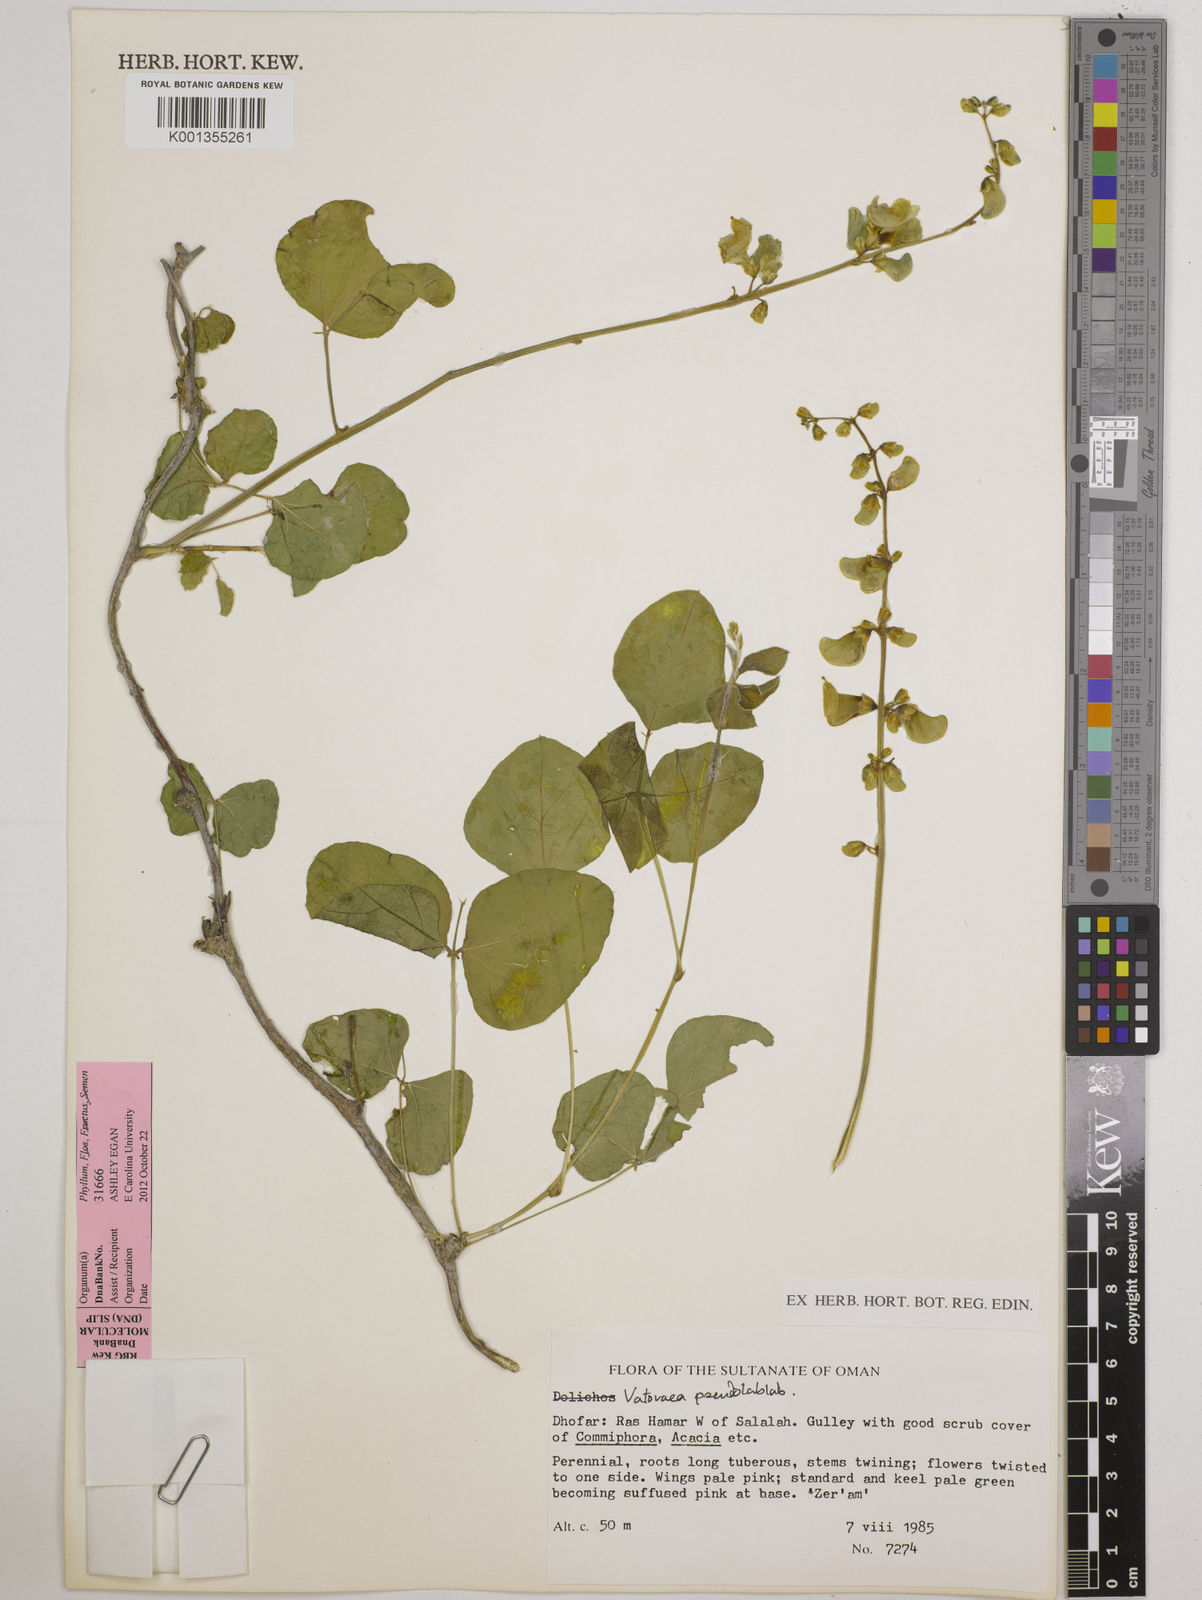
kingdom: Plantae
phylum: Tracheophyta
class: Magnoliopsida
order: Fabales
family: Fabaceae
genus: Vatovaea
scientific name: Vatovaea pseudolablab
